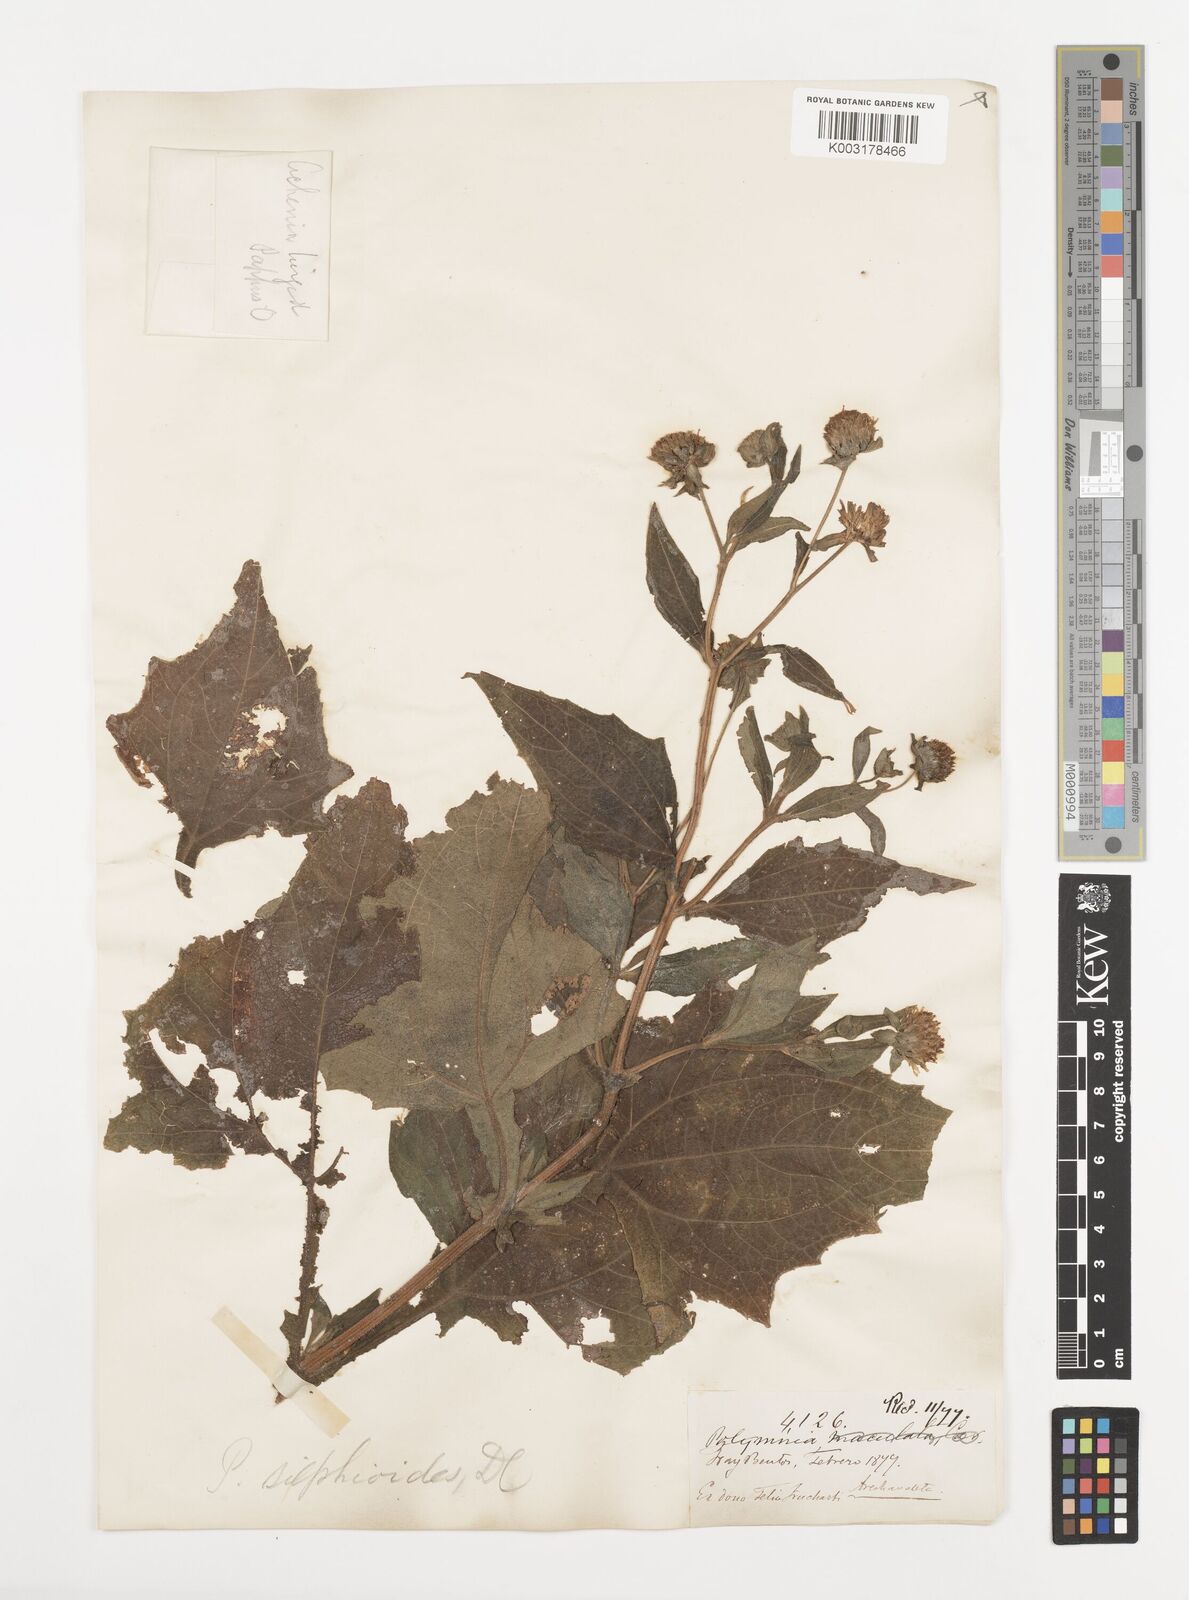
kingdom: Plantae
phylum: Tracheophyta
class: Magnoliopsida
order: Asterales
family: Asteraceae
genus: Smallanthus
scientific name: Smallanthus connatus
